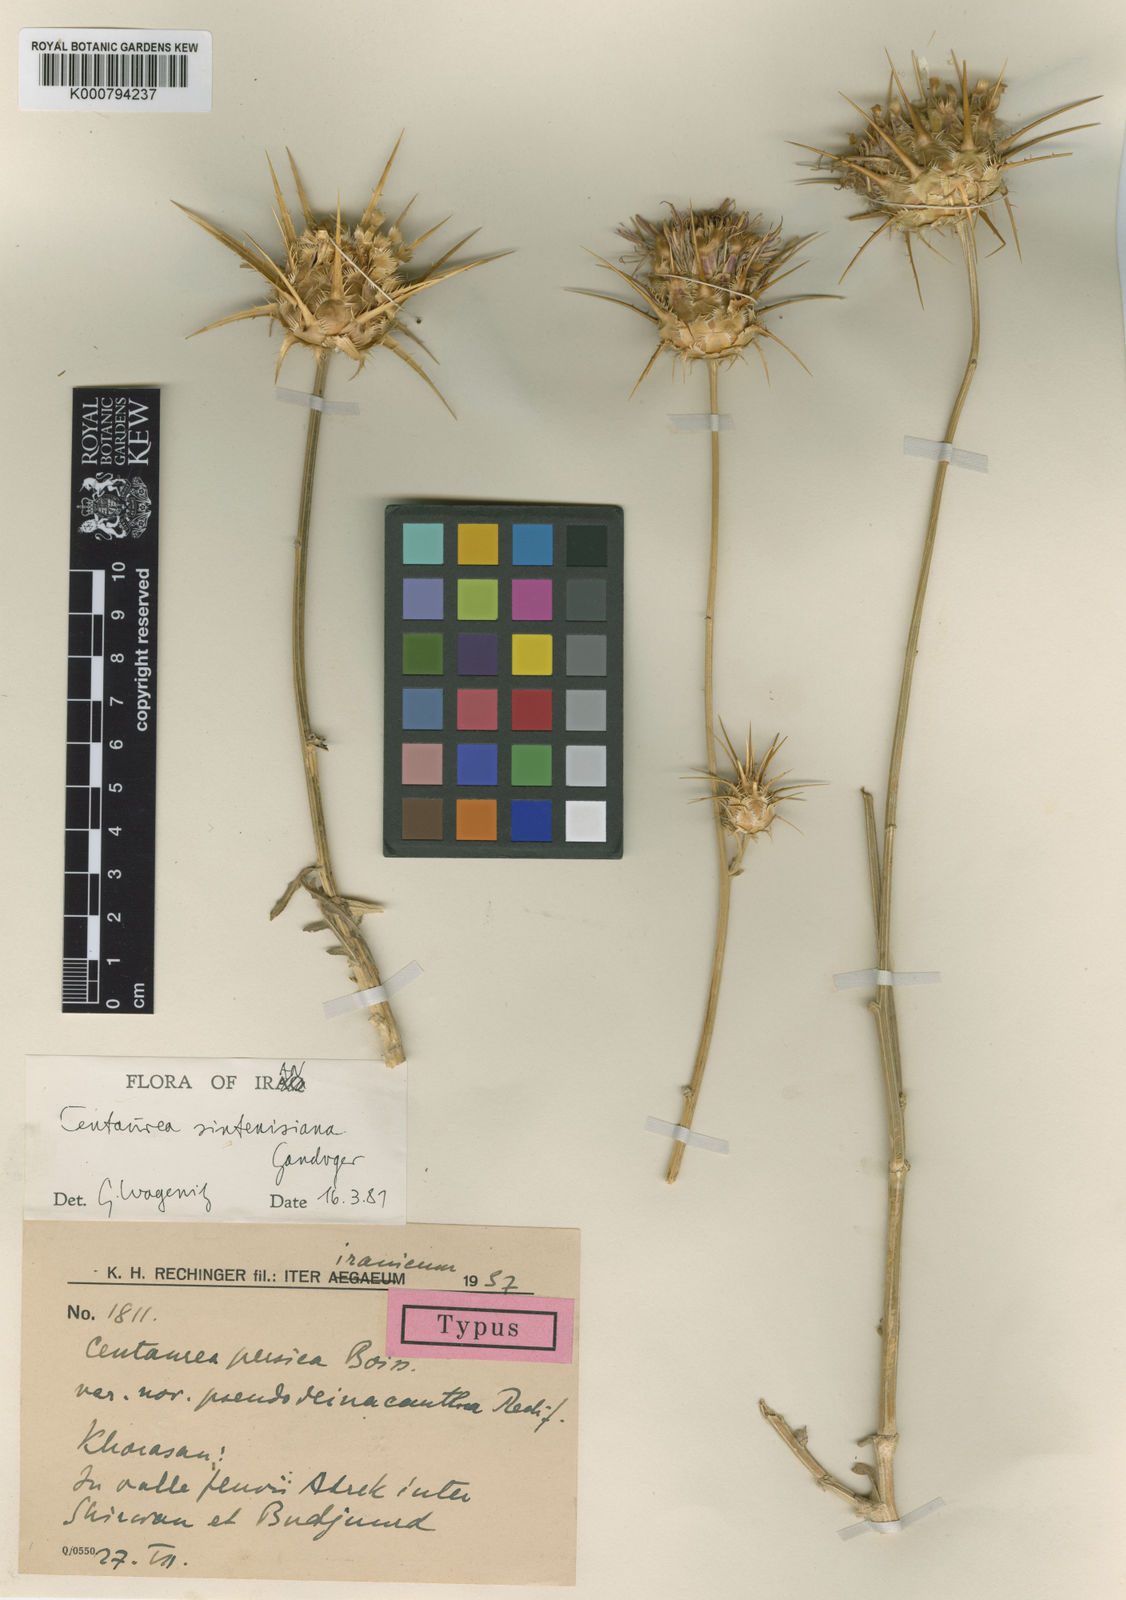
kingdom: Plantae
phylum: Tracheophyta
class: Magnoliopsida
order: Asterales
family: Asteraceae
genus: Psephellus
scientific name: Psephellus sintenisii
